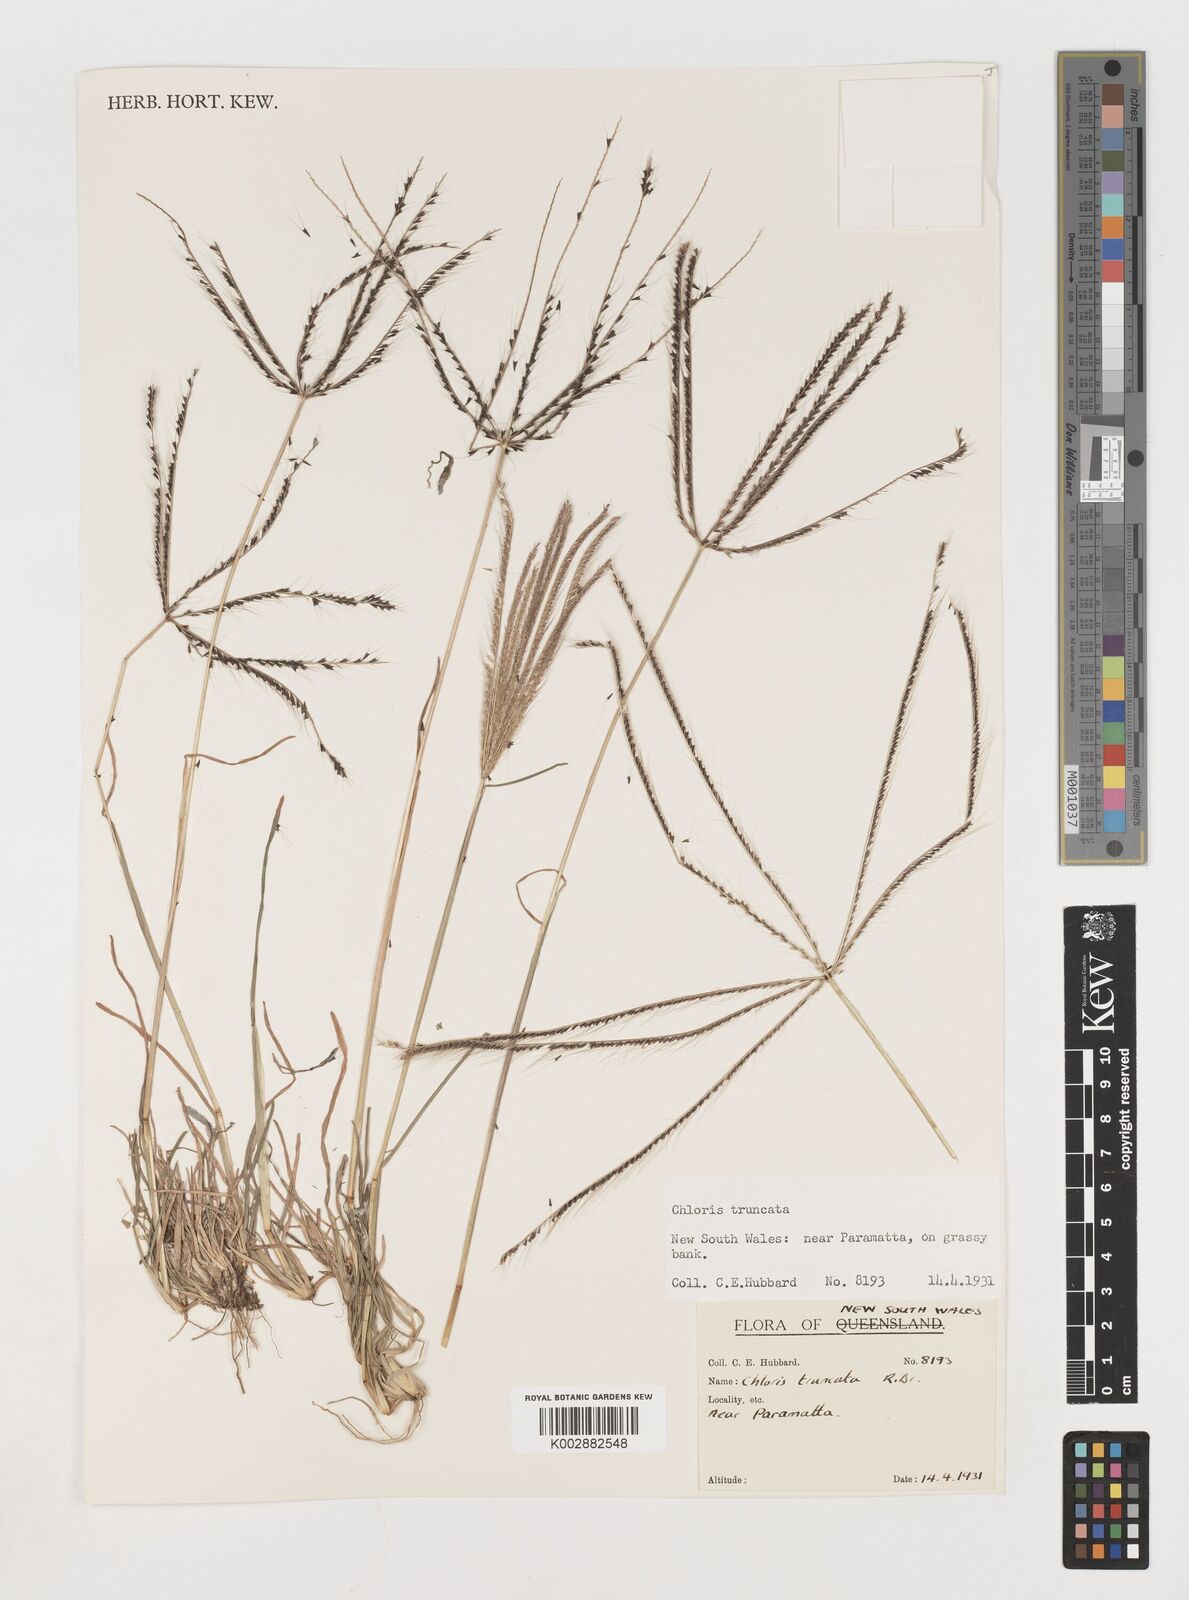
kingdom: Plantae
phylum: Tracheophyta
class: Liliopsida
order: Poales
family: Poaceae
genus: Chloris
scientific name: Chloris truncata
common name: Windmill-grass
